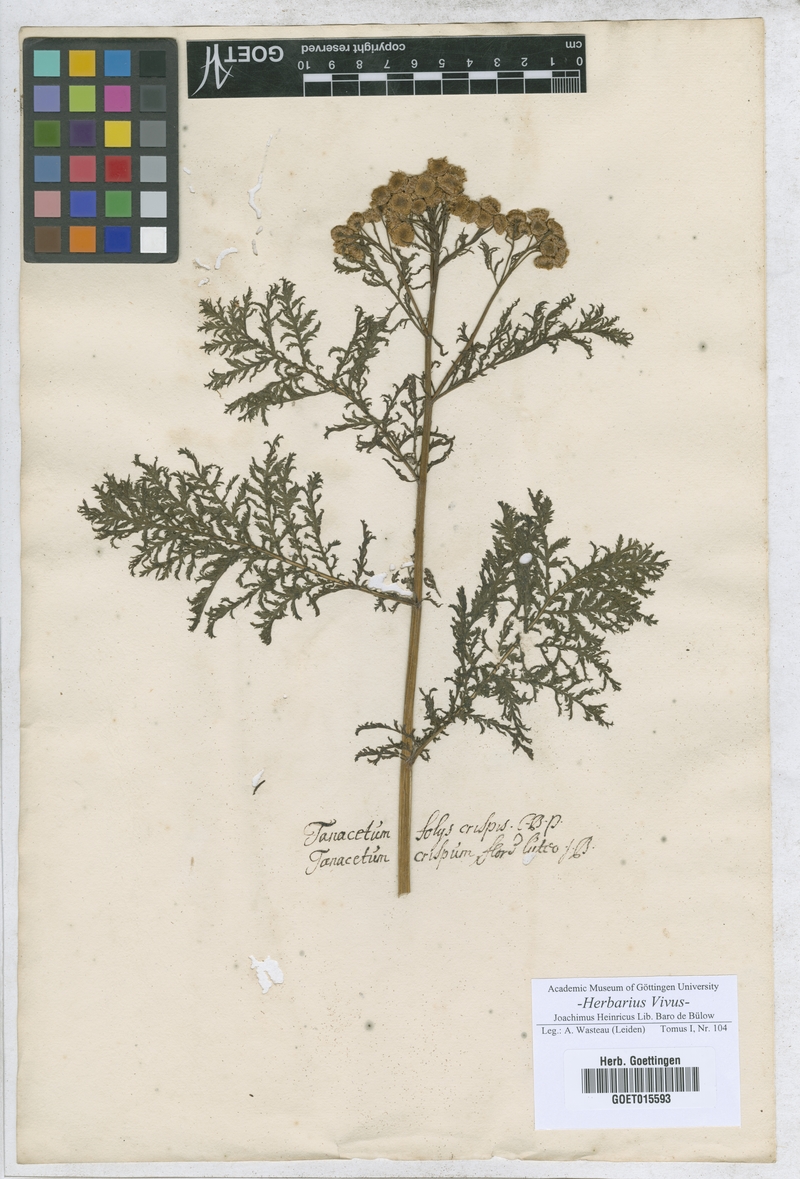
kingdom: Plantae
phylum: Tracheophyta
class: Magnoliopsida
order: Asterales
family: Asteraceae
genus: Tanacetum
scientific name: Tanacetum vulgare
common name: Common tansy
